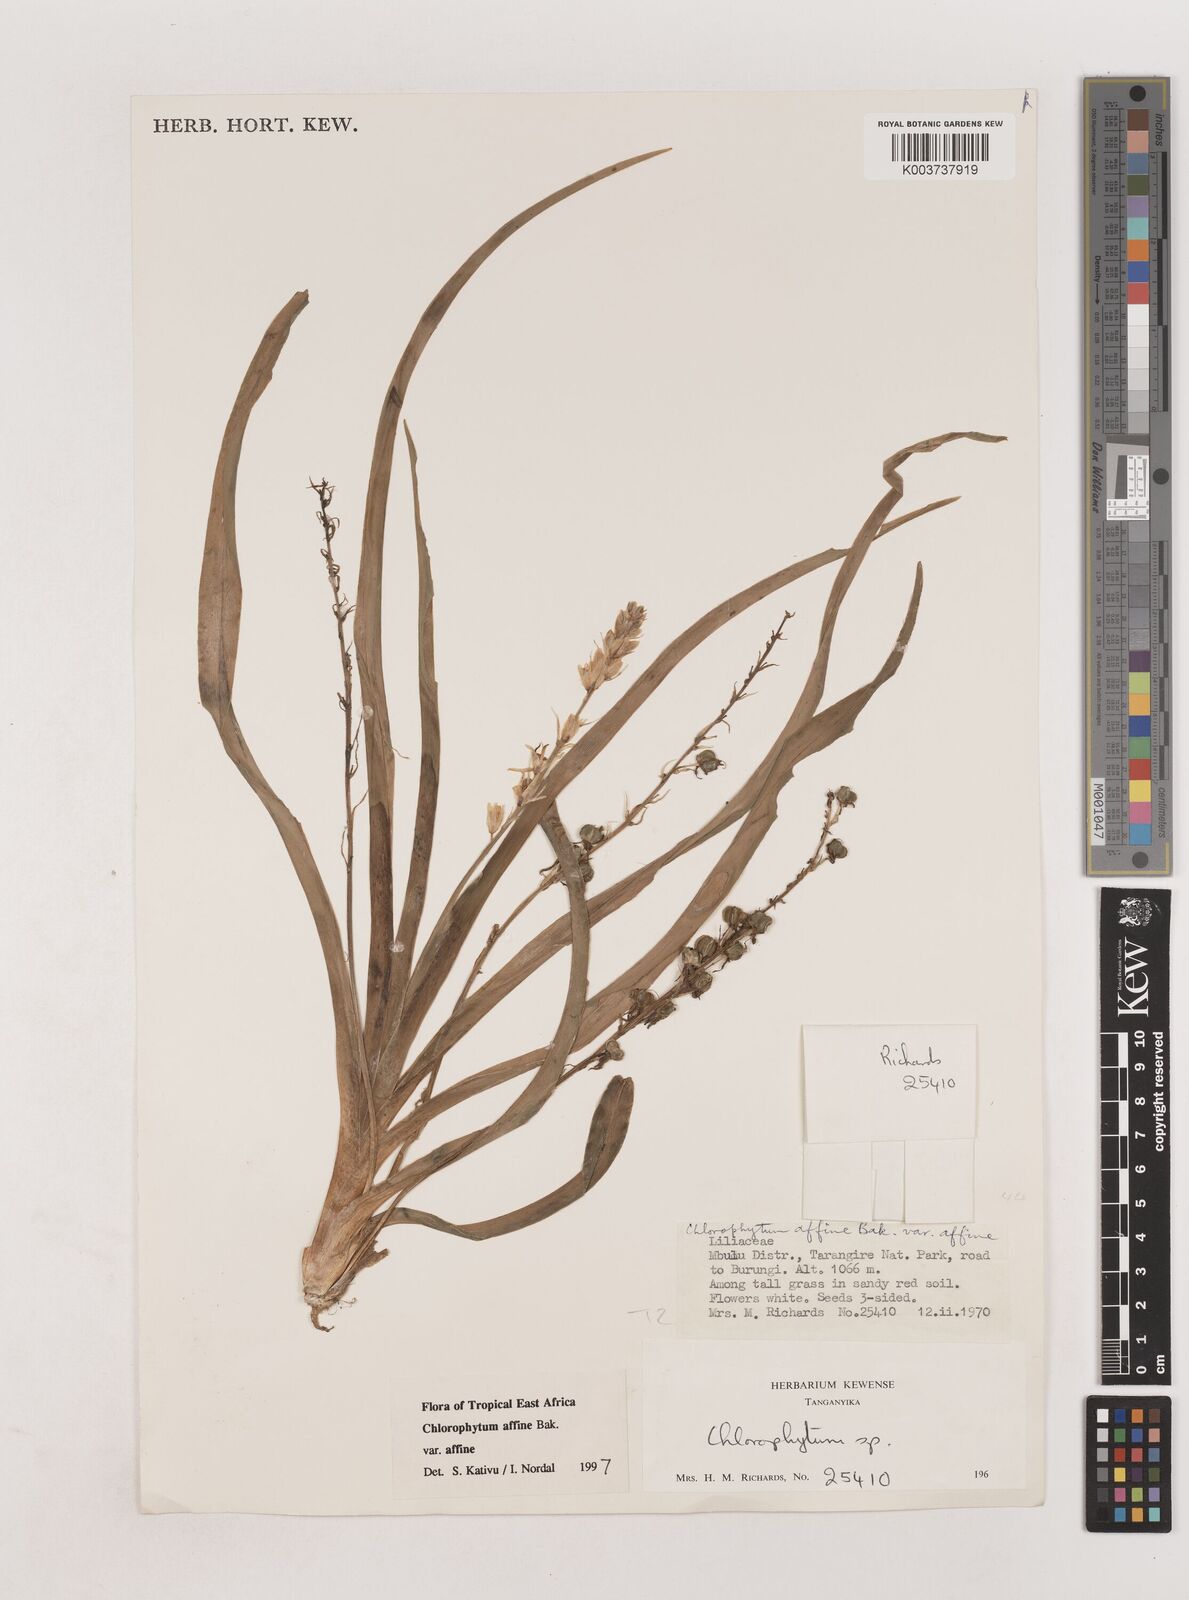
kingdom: Plantae
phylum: Tracheophyta
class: Liliopsida
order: Asparagales
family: Asparagaceae
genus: Chlorophytum
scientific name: Chlorophytum affine
